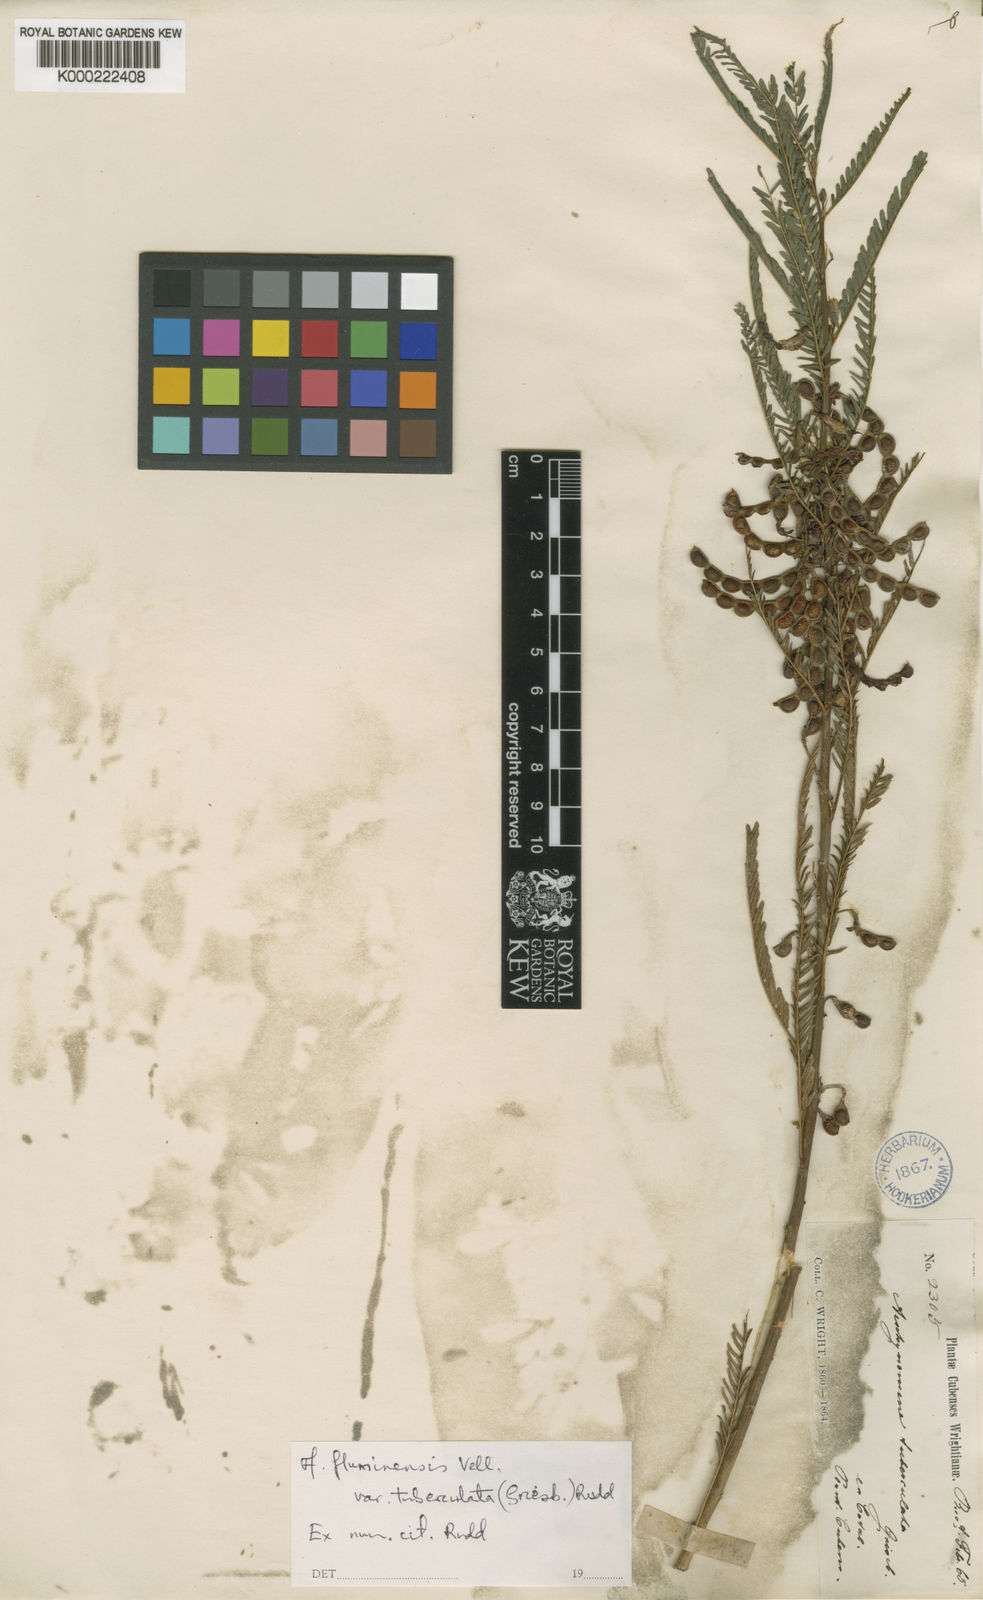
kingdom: Plantae
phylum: Tracheophyta
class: Magnoliopsida
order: Fabales
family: Fabaceae
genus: Aeschynomene
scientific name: Aeschynomene fluminensis
